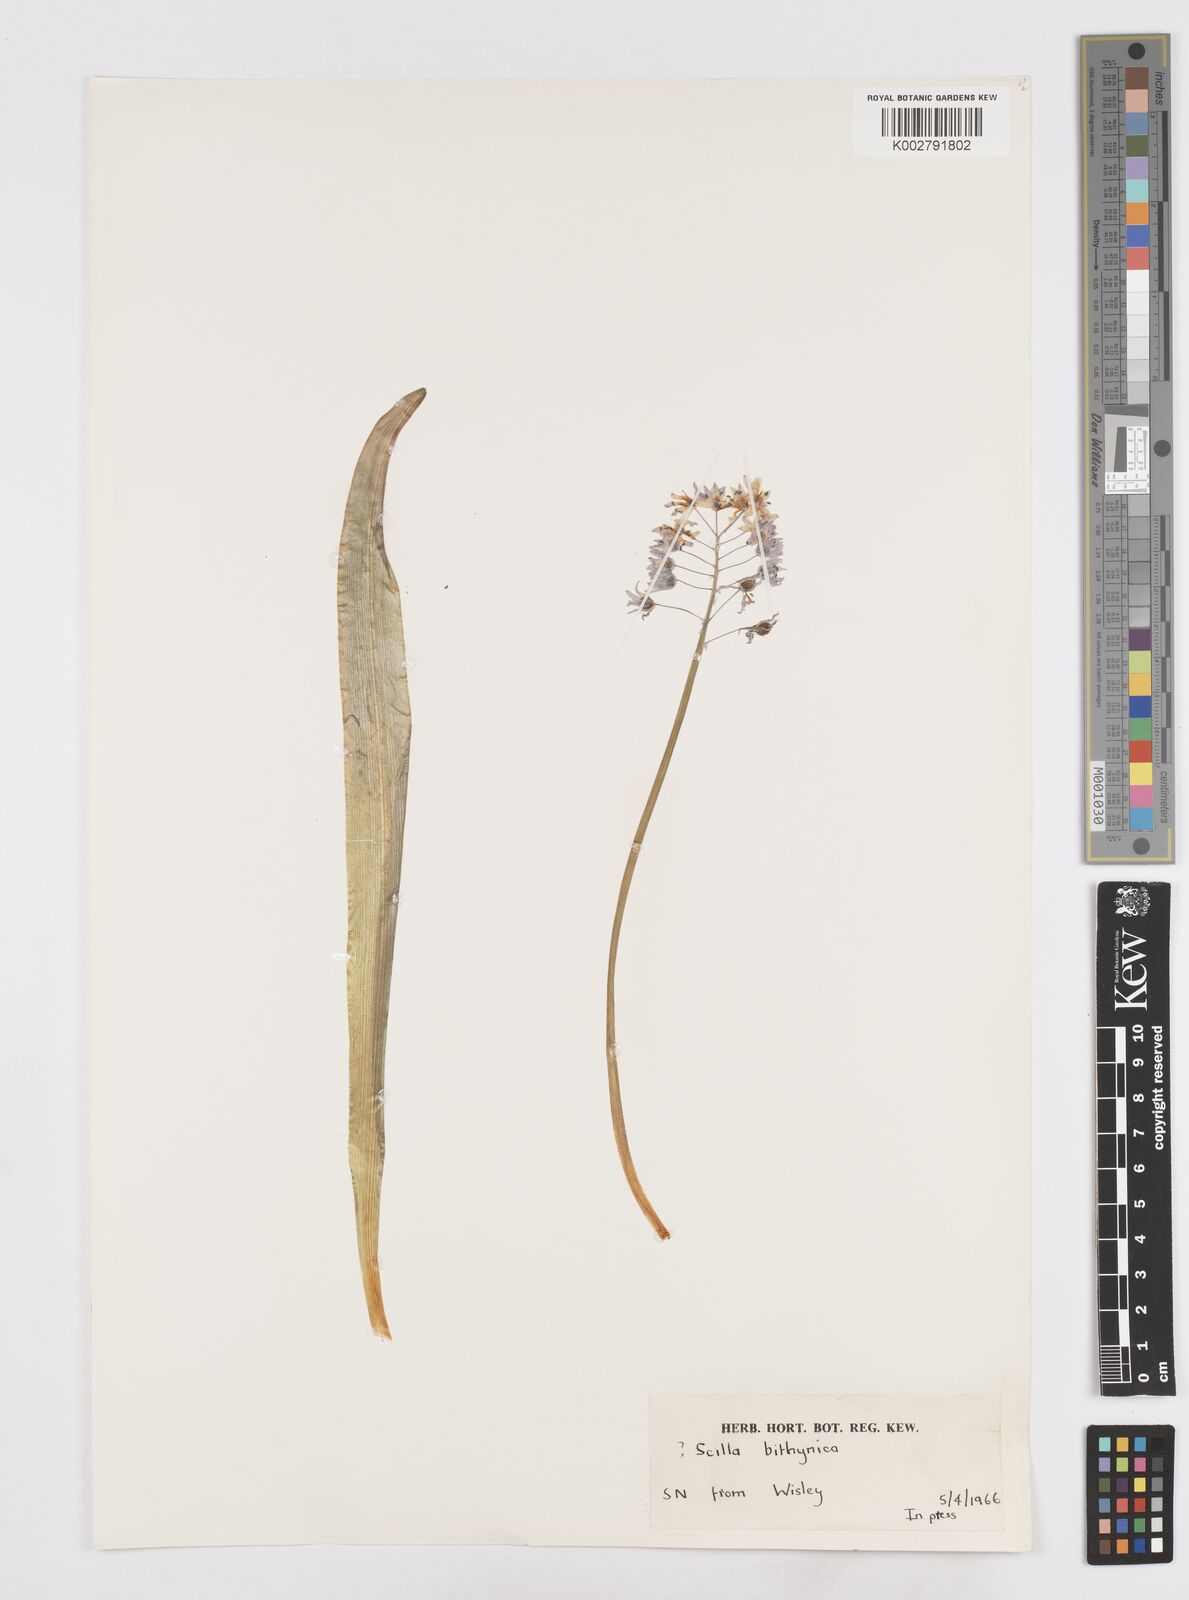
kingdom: Plantae
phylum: Tracheophyta
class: Liliopsida
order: Asparagales
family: Asparagaceae
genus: Scilla
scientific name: Scilla bithynica
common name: Turkish squill
